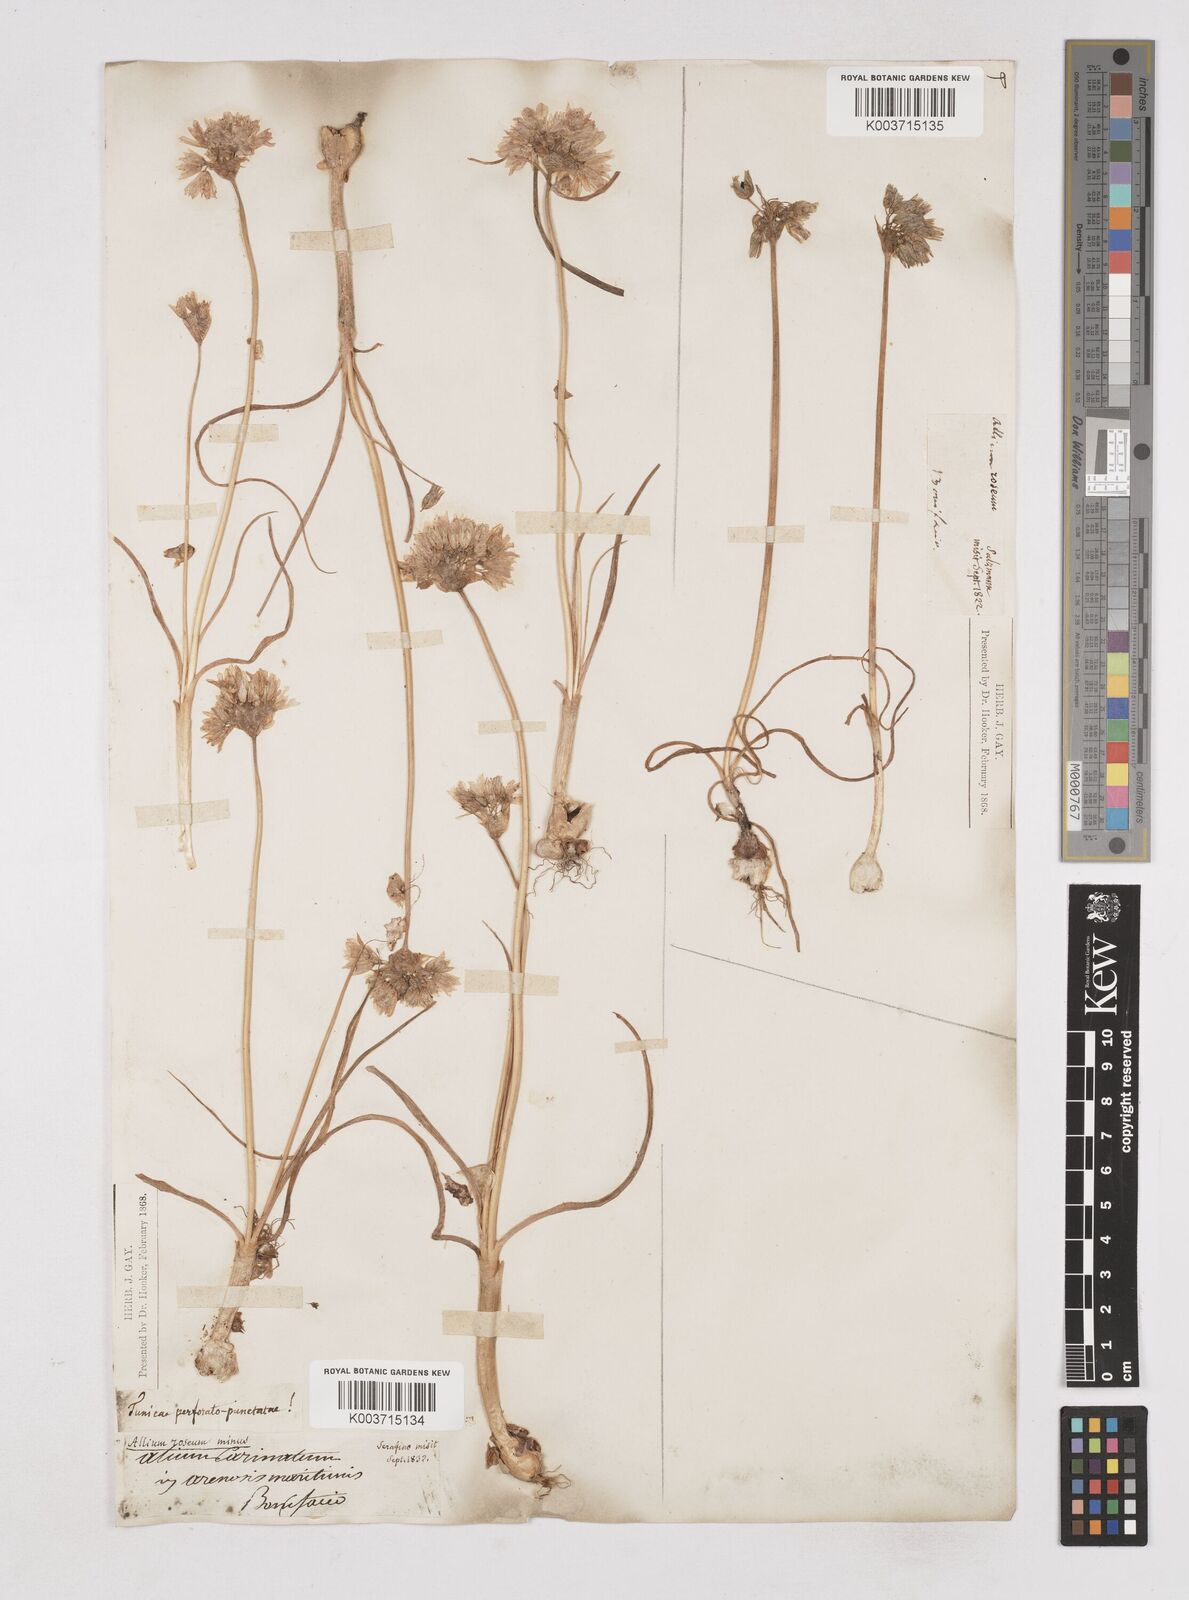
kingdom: Plantae
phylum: Tracheophyta
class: Liliopsida
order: Asparagales
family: Amaryllidaceae
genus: Allium
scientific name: Allium roseum
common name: Rosy garlic
